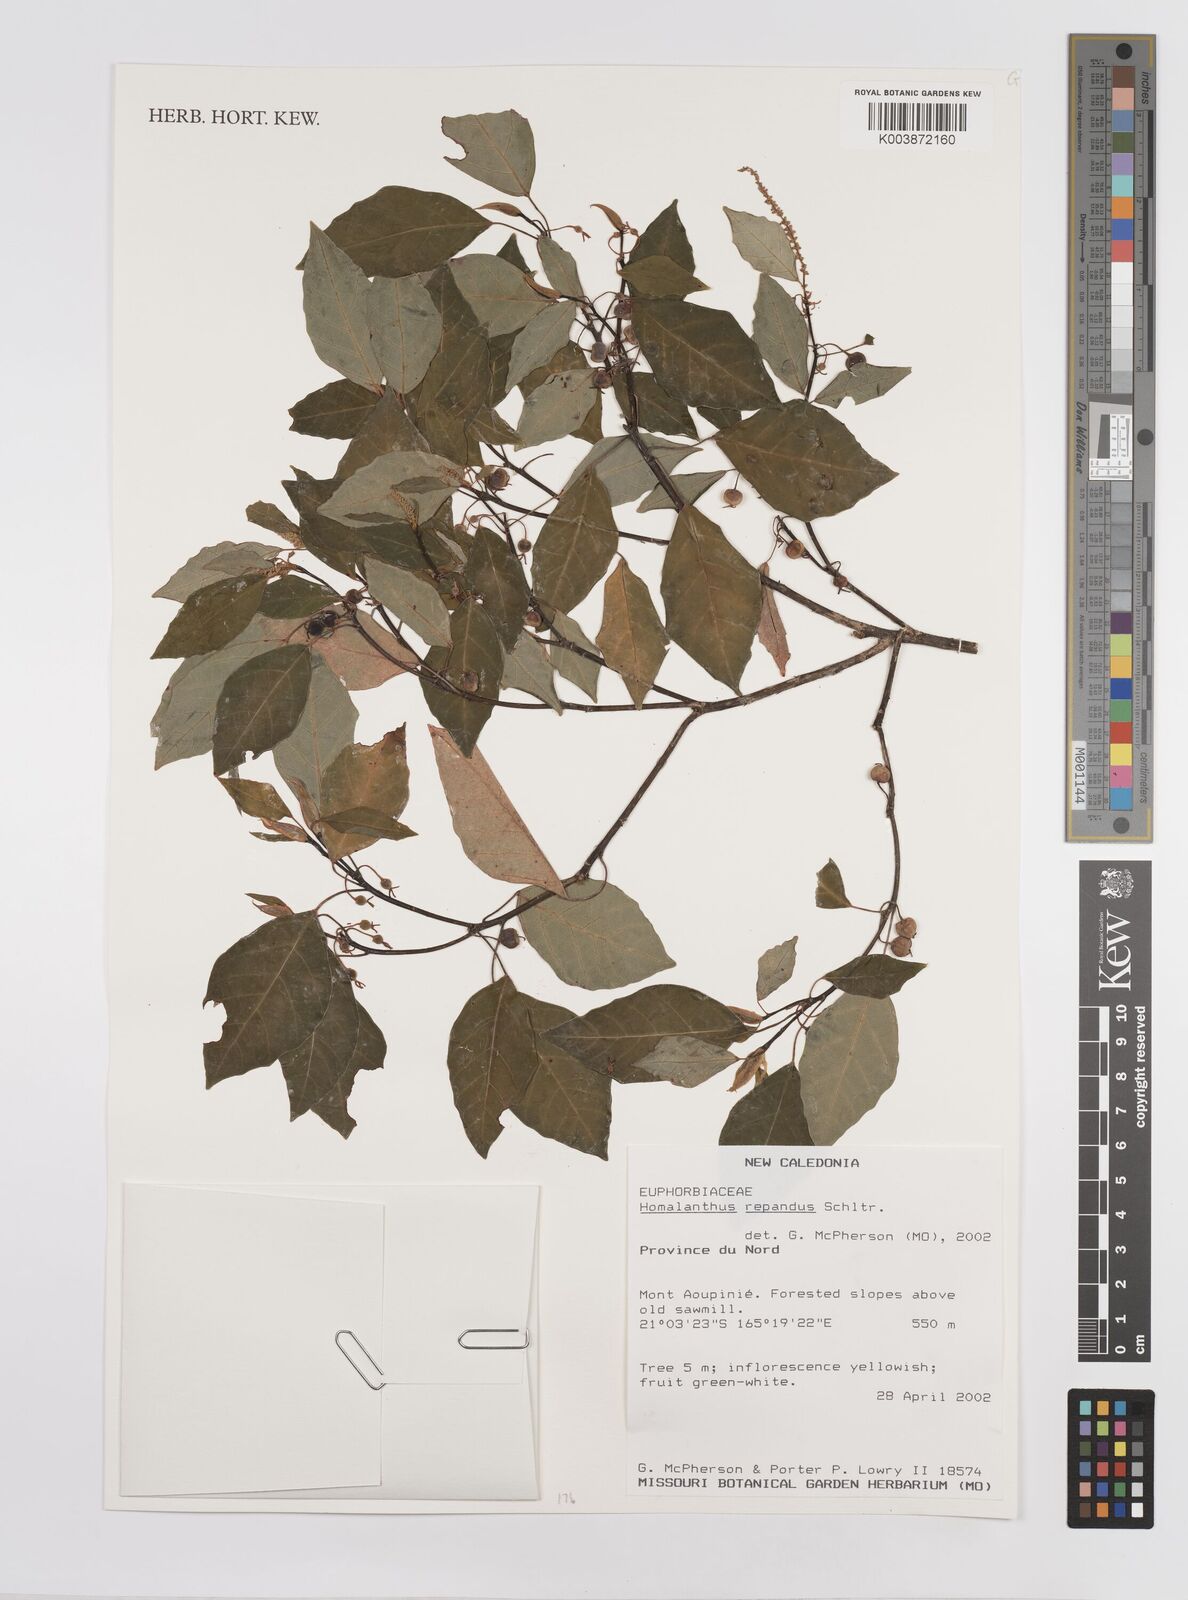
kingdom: Plantae
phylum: Tracheophyta
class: Magnoliopsida
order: Malpighiales
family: Euphorbiaceae
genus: Homalanthus
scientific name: Homalanthus repandus
